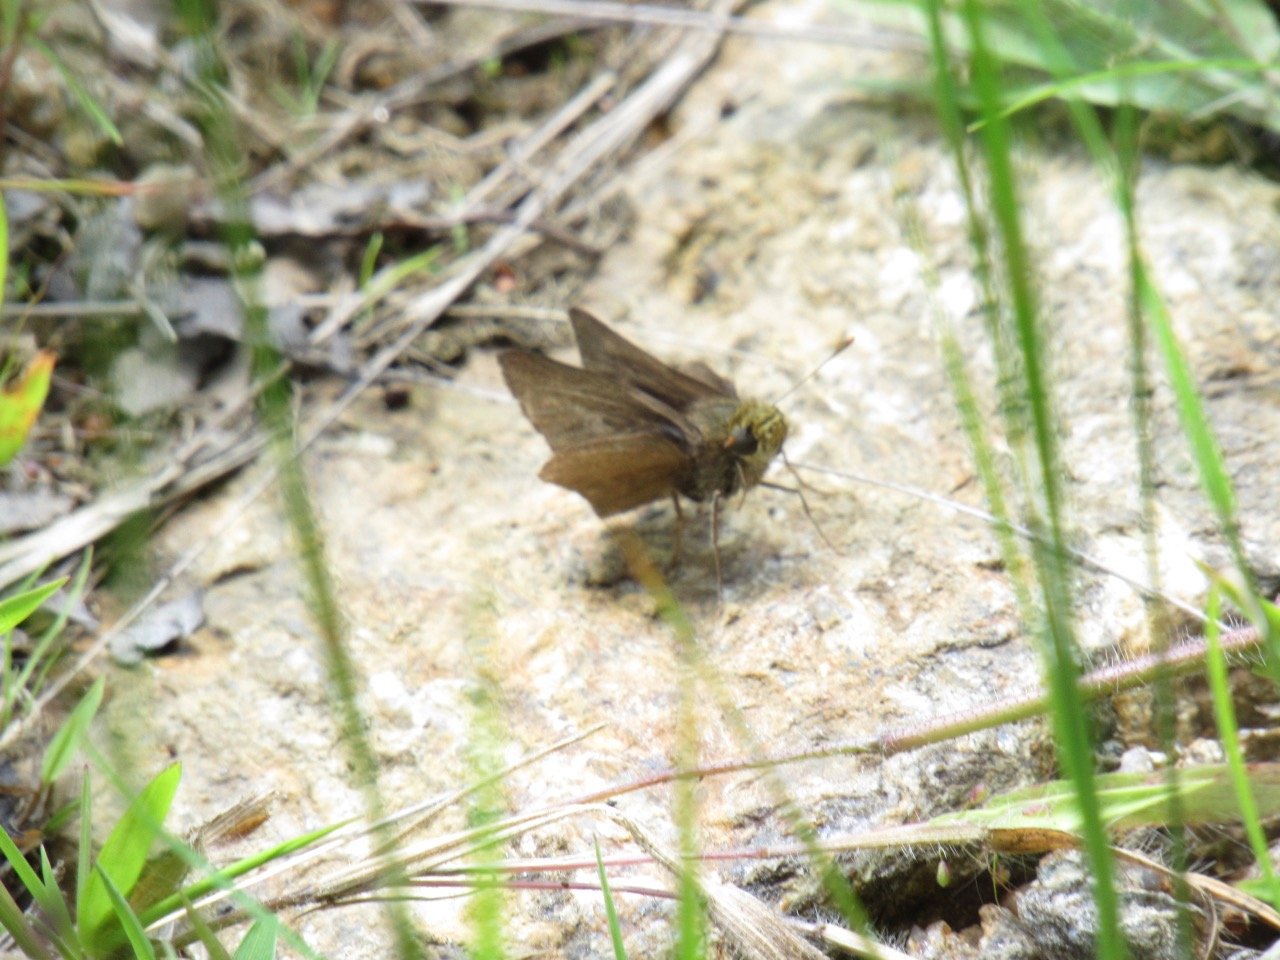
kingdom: Animalia
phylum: Arthropoda
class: Insecta
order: Lepidoptera
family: Hesperiidae
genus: Euphyes
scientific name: Euphyes vestris
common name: Dun Skipper
